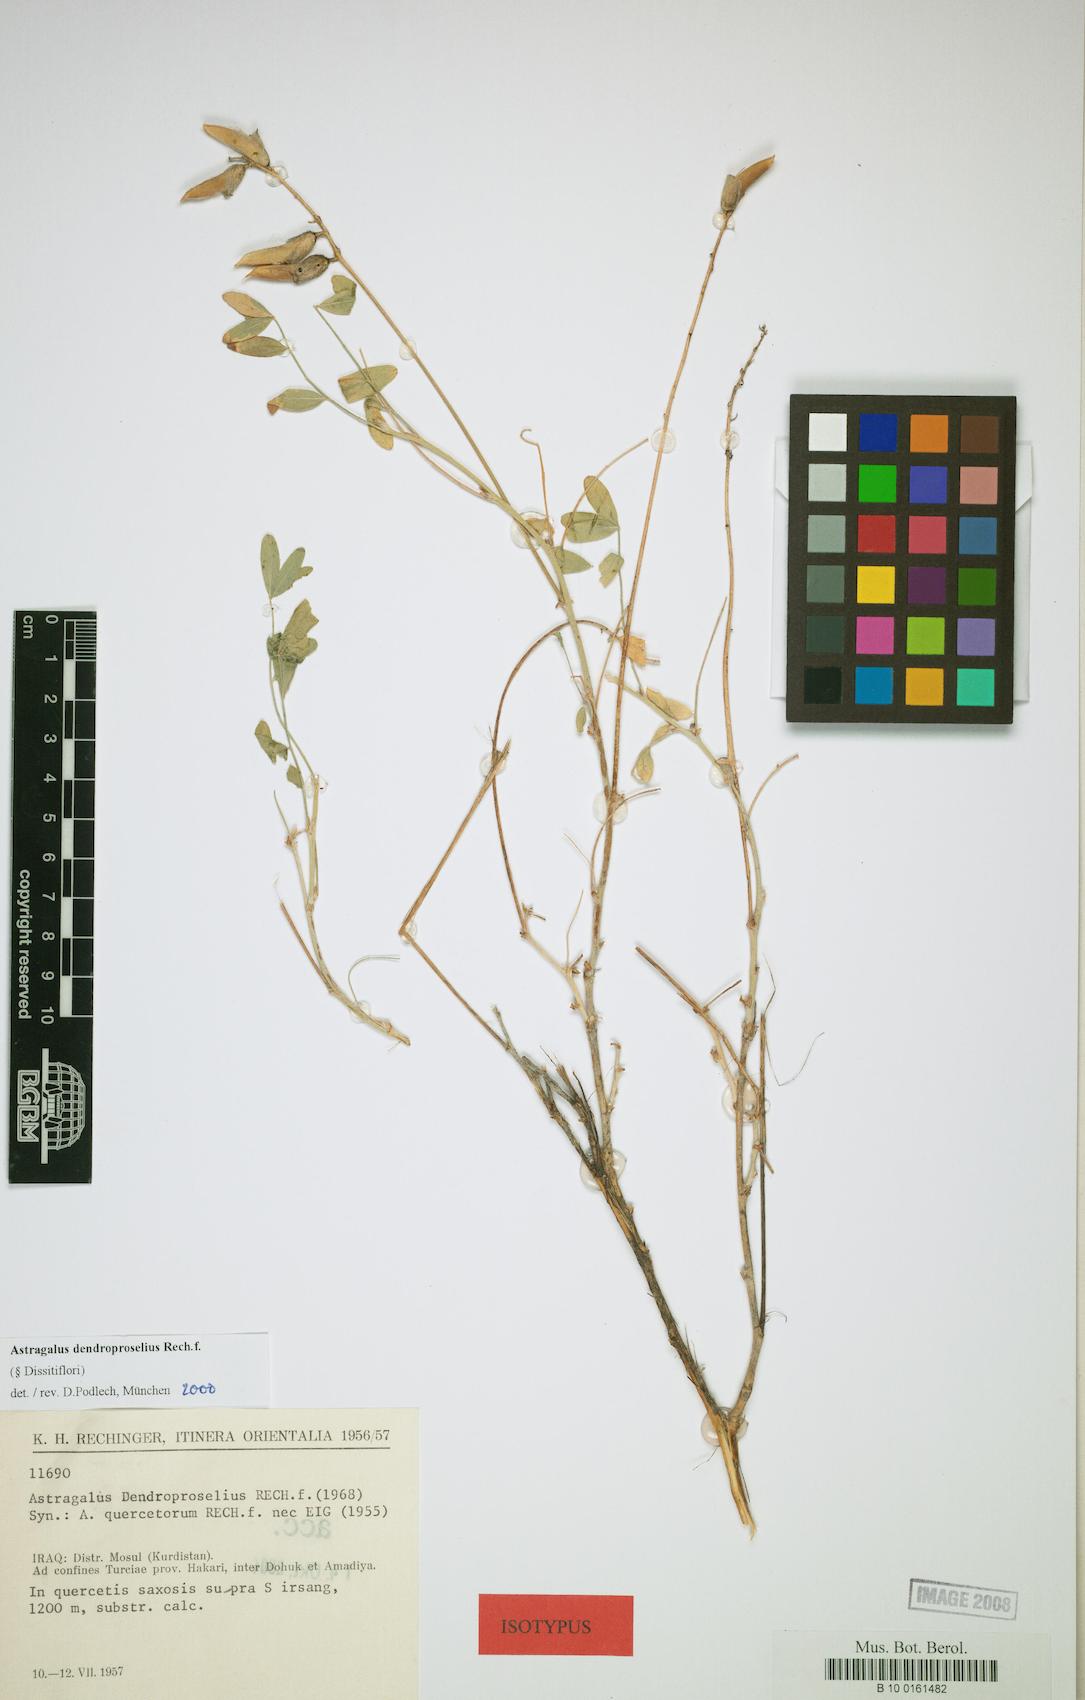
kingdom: Plantae
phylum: Tracheophyta
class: Magnoliopsida
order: Fabales
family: Fabaceae
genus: Astragalus
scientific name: Astragalus dendroproselius
